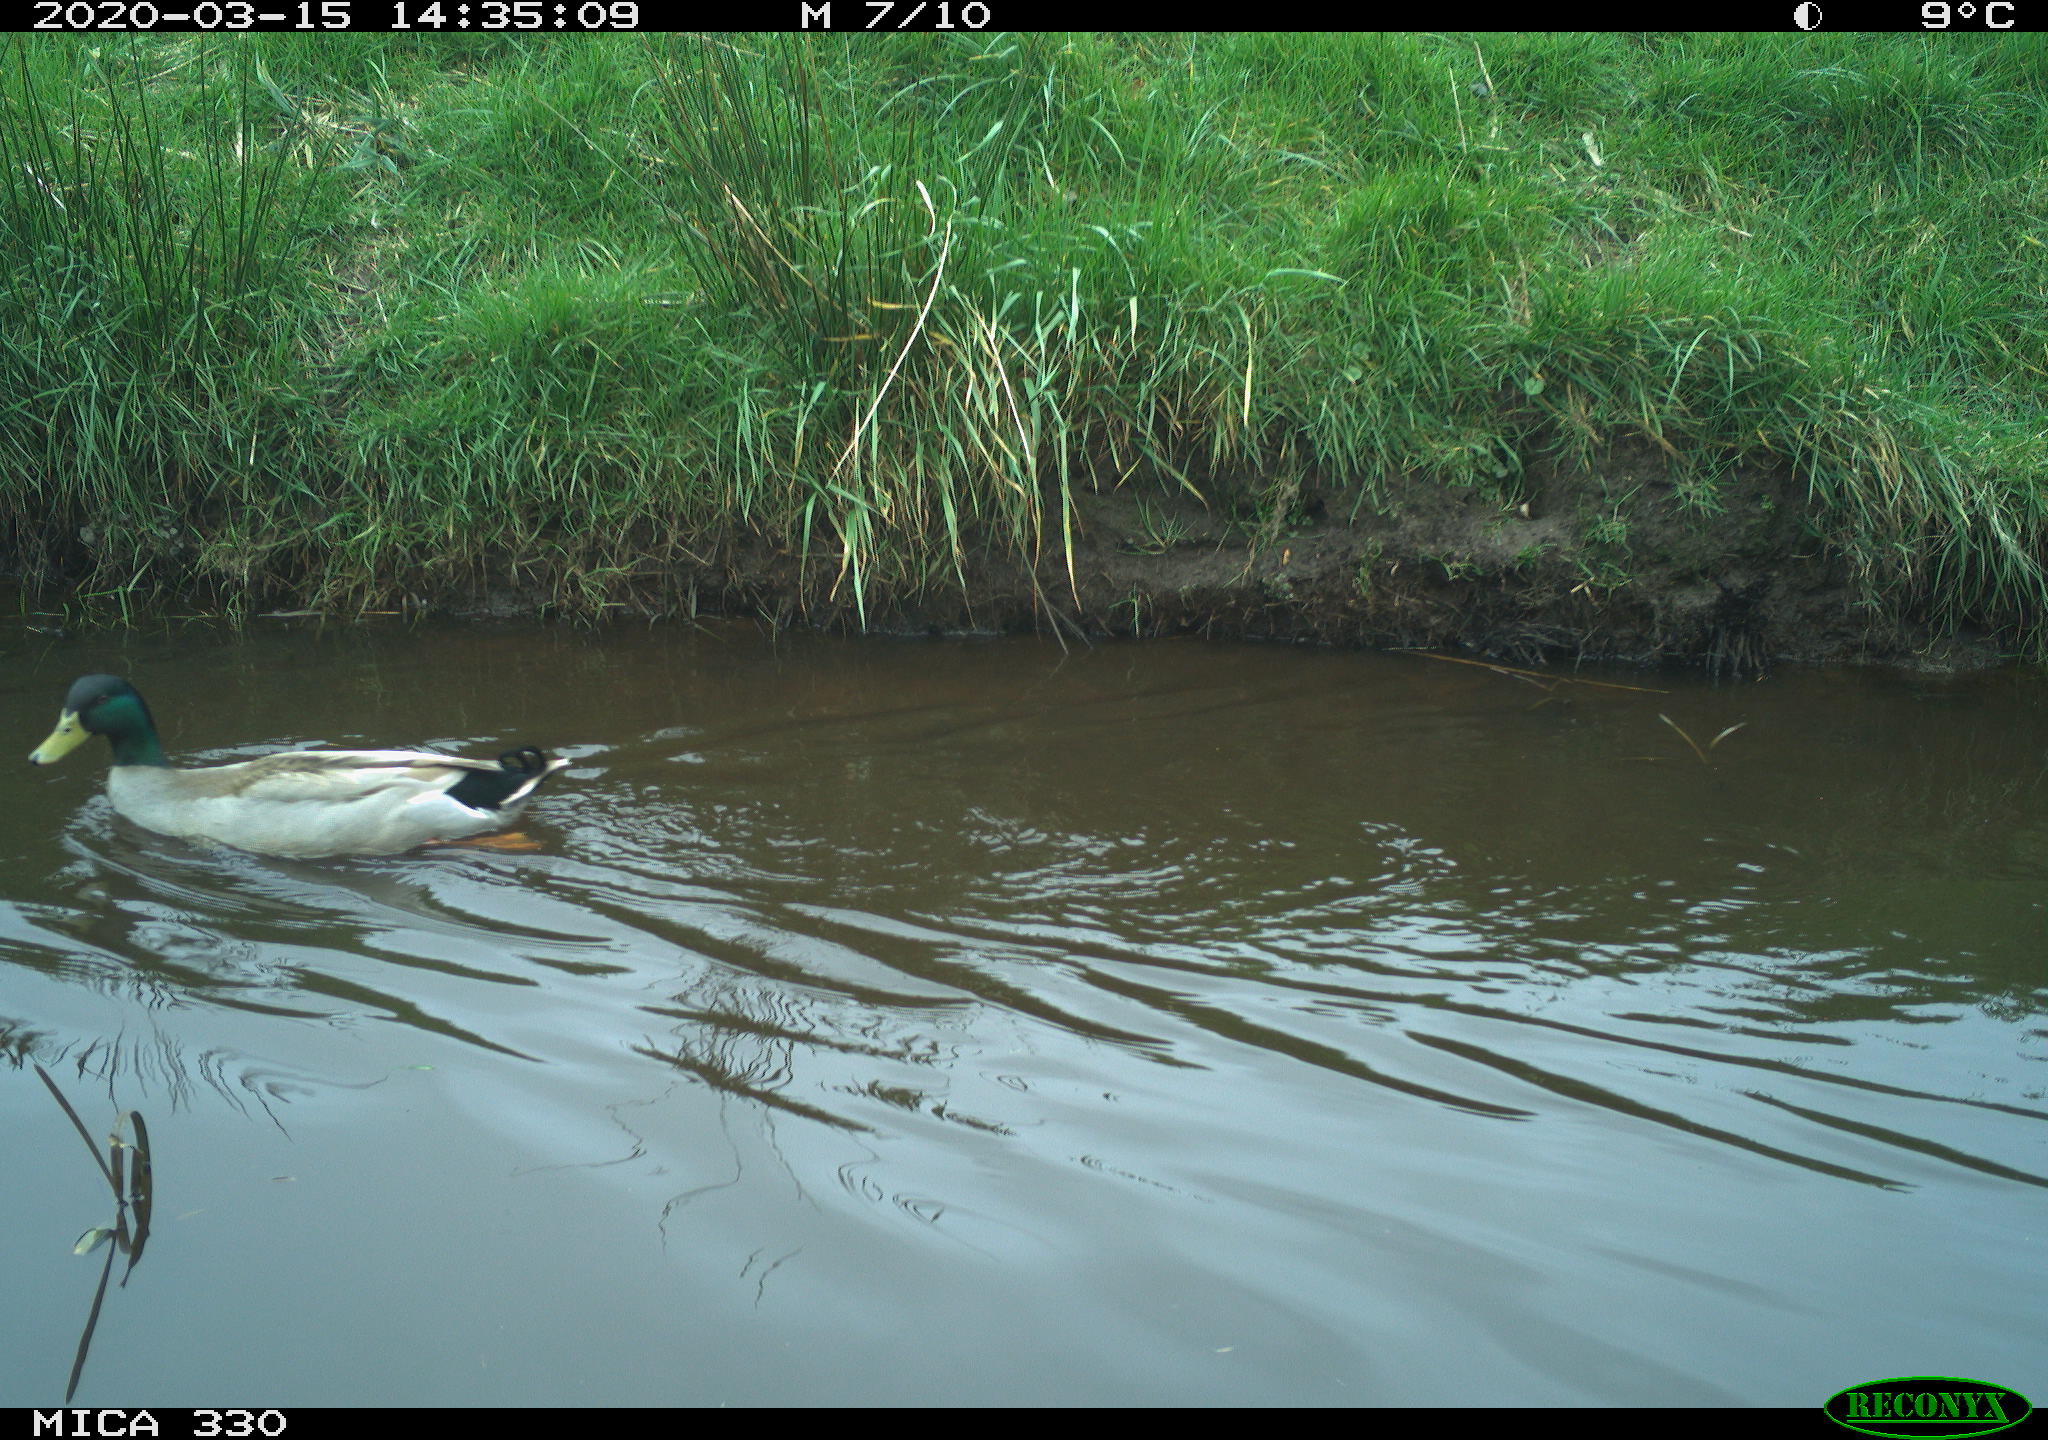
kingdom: Animalia
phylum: Chordata
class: Aves
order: Anseriformes
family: Anatidae
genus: Anas
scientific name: Anas platyrhynchos
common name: Mallard
